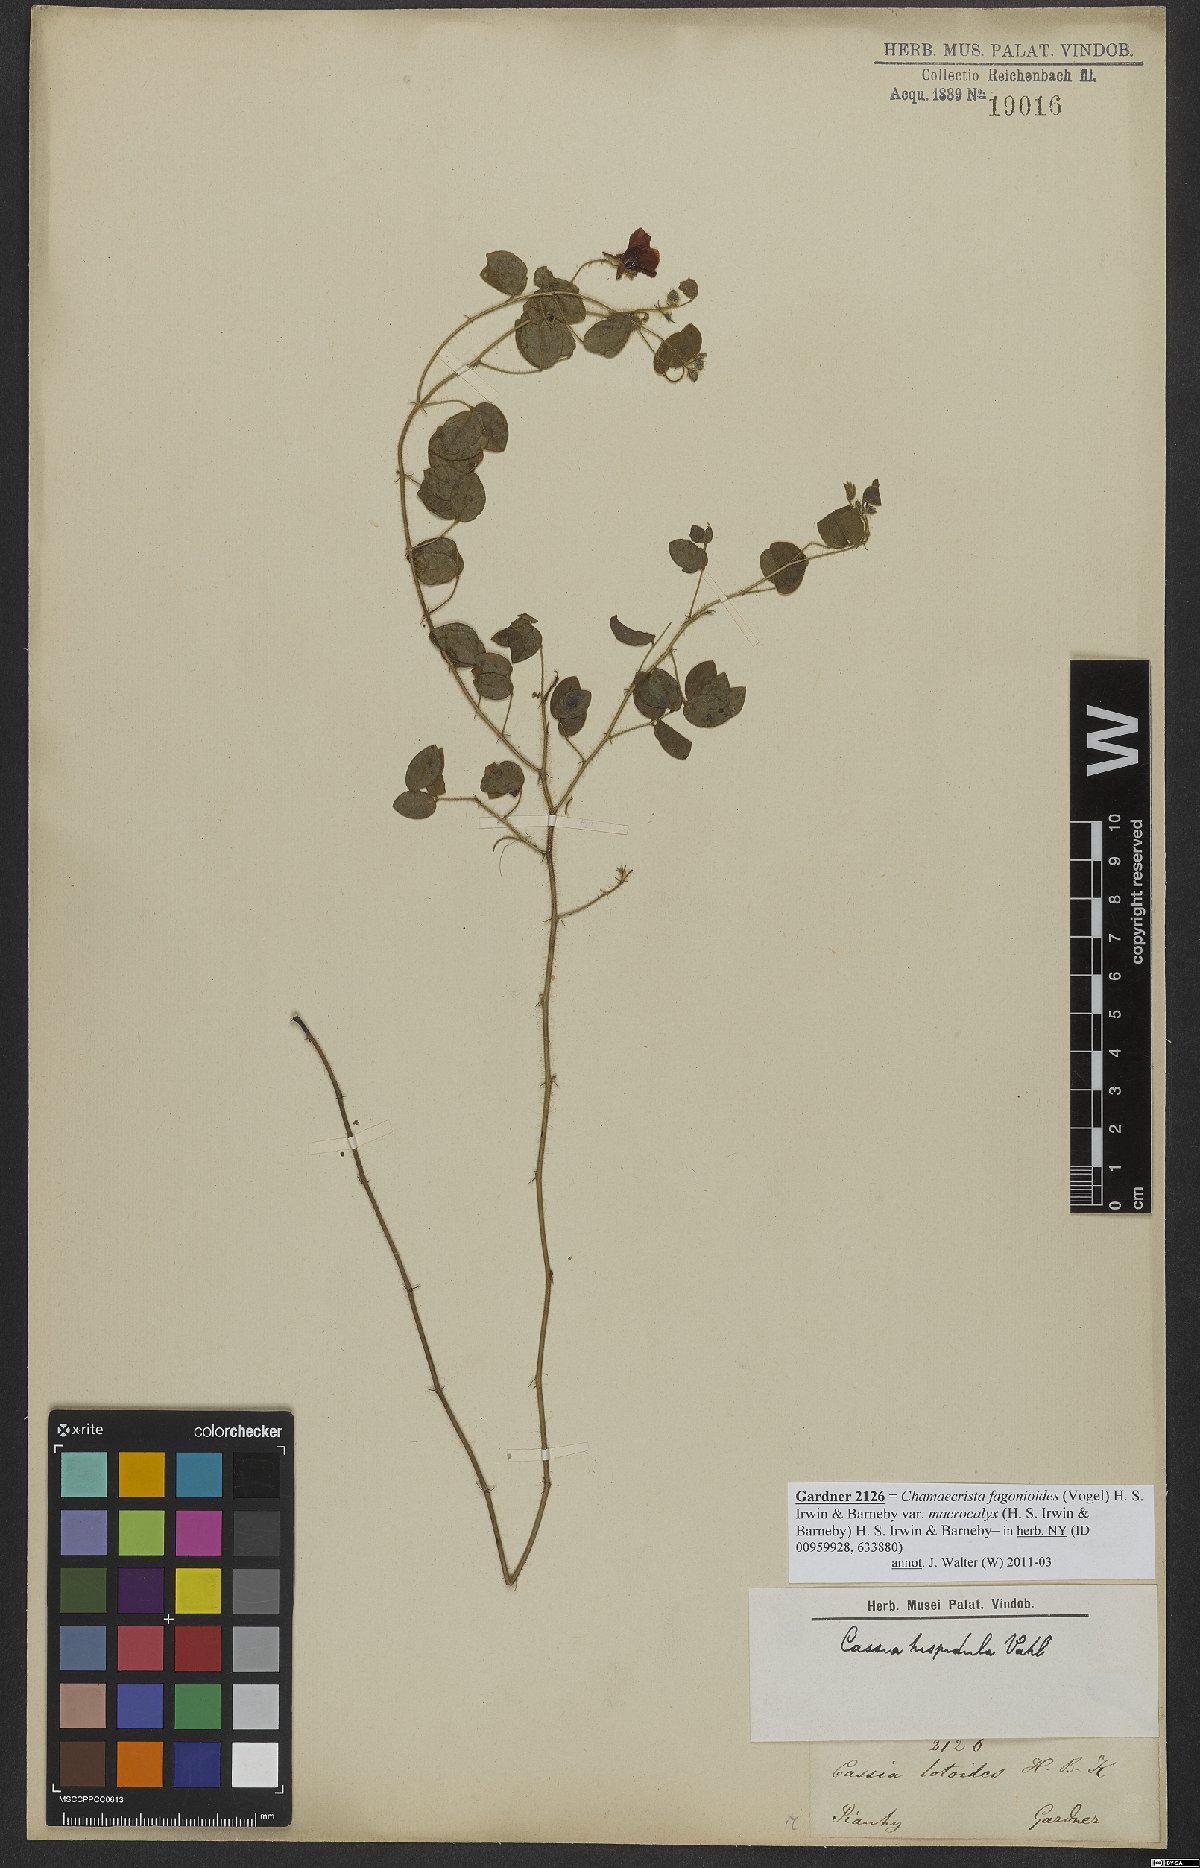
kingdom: Plantae
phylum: Tracheophyta
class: Magnoliopsida
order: Fabales
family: Fabaceae
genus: Chamaecrista
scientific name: Chamaecrista hispidula
